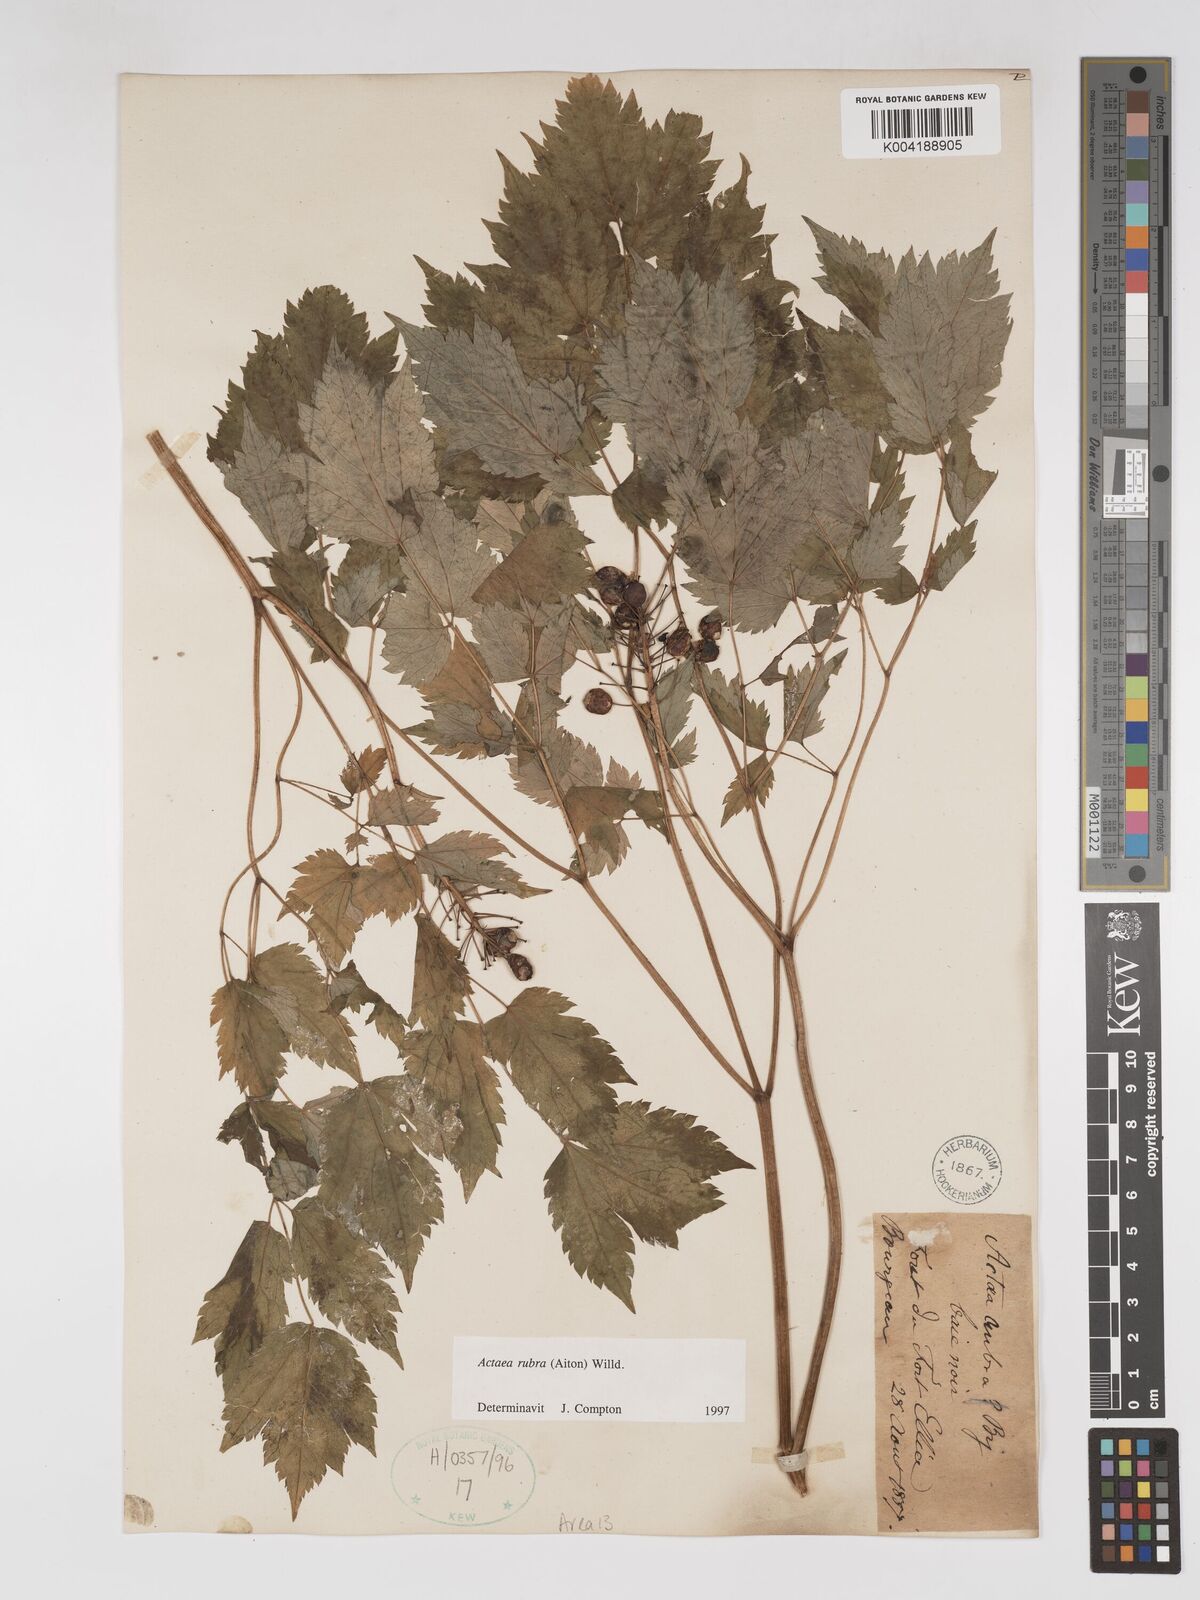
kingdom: Plantae
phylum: Tracheophyta
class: Magnoliopsida
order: Ranunculales
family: Ranunculaceae
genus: Actaea
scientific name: Actaea rubra
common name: Red baneberry
